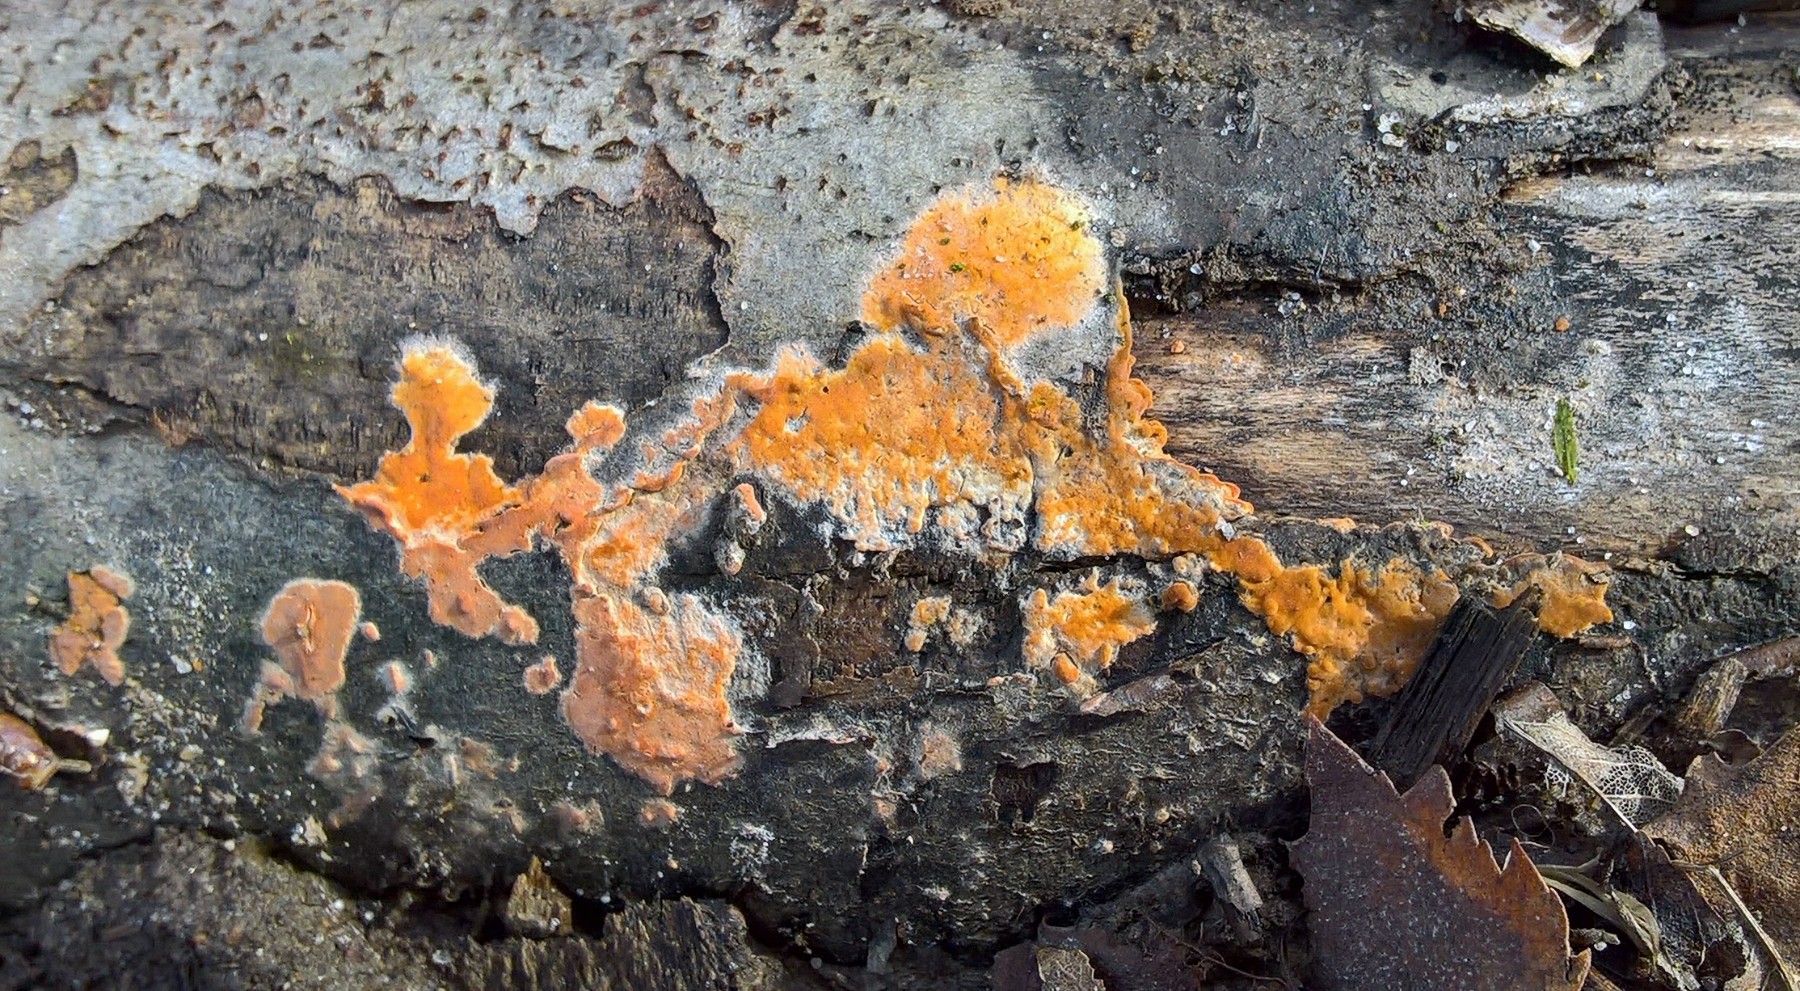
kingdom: Fungi
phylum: Basidiomycota
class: Agaricomycetes
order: Russulales
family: Peniophoraceae
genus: Peniophora
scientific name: Peniophora incarnata
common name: laksefarvet voksskind
